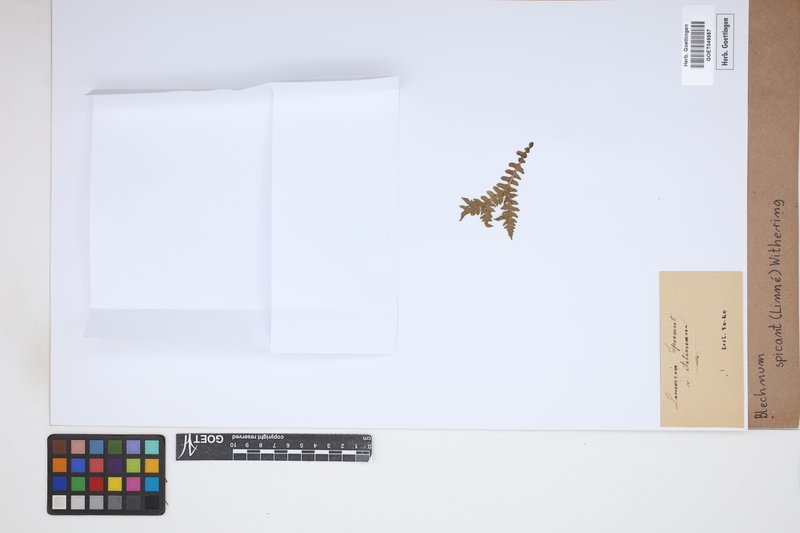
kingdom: Plantae
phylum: Tracheophyta
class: Polypodiopsida
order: Polypodiales
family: Blechnaceae
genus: Struthiopteris
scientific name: Struthiopteris spicant
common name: Deer fern
